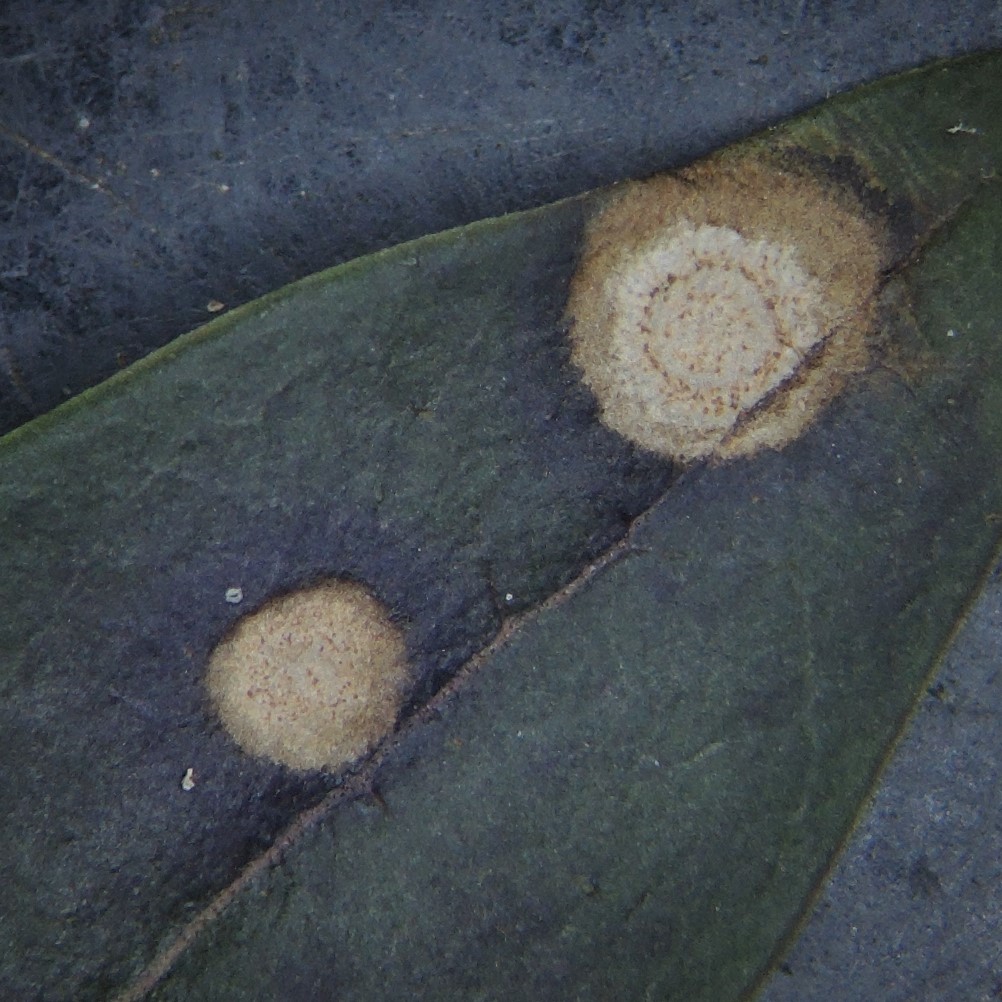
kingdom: Fungi
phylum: Ascomycota
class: Leotiomycetes
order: Helotiales
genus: Thedgonia
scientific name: Thedgonia ligustrina
